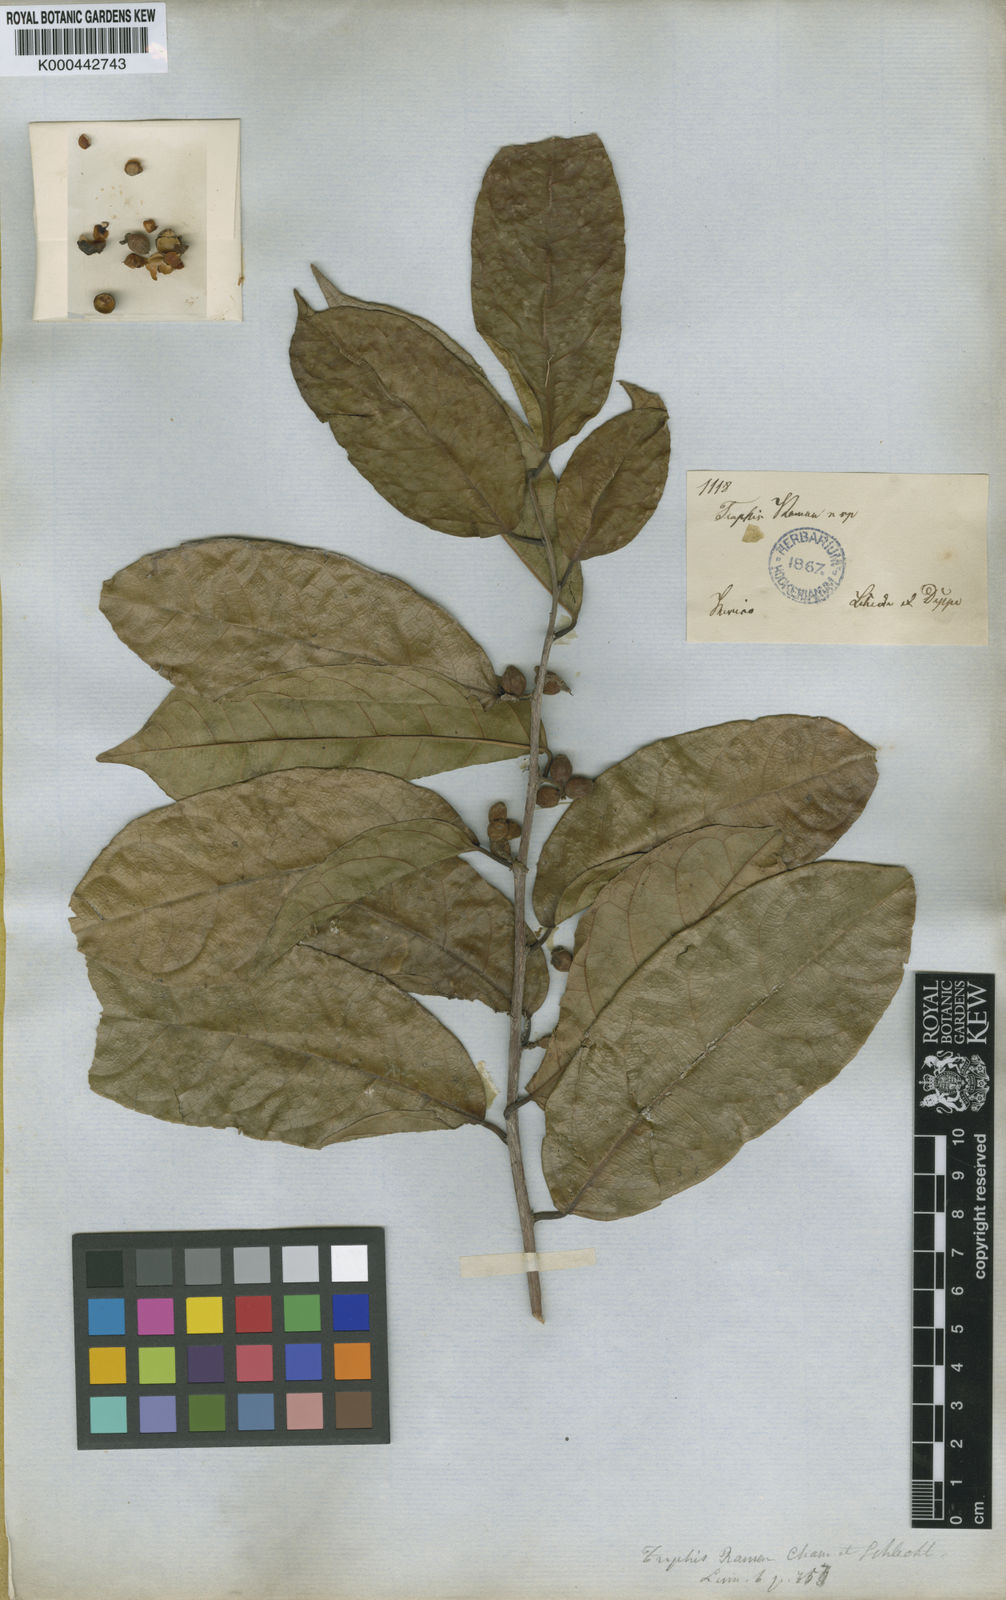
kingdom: Plantae
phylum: Tracheophyta
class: Magnoliopsida
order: Rosales
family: Moraceae
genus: Trophis
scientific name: Trophis racemosa
